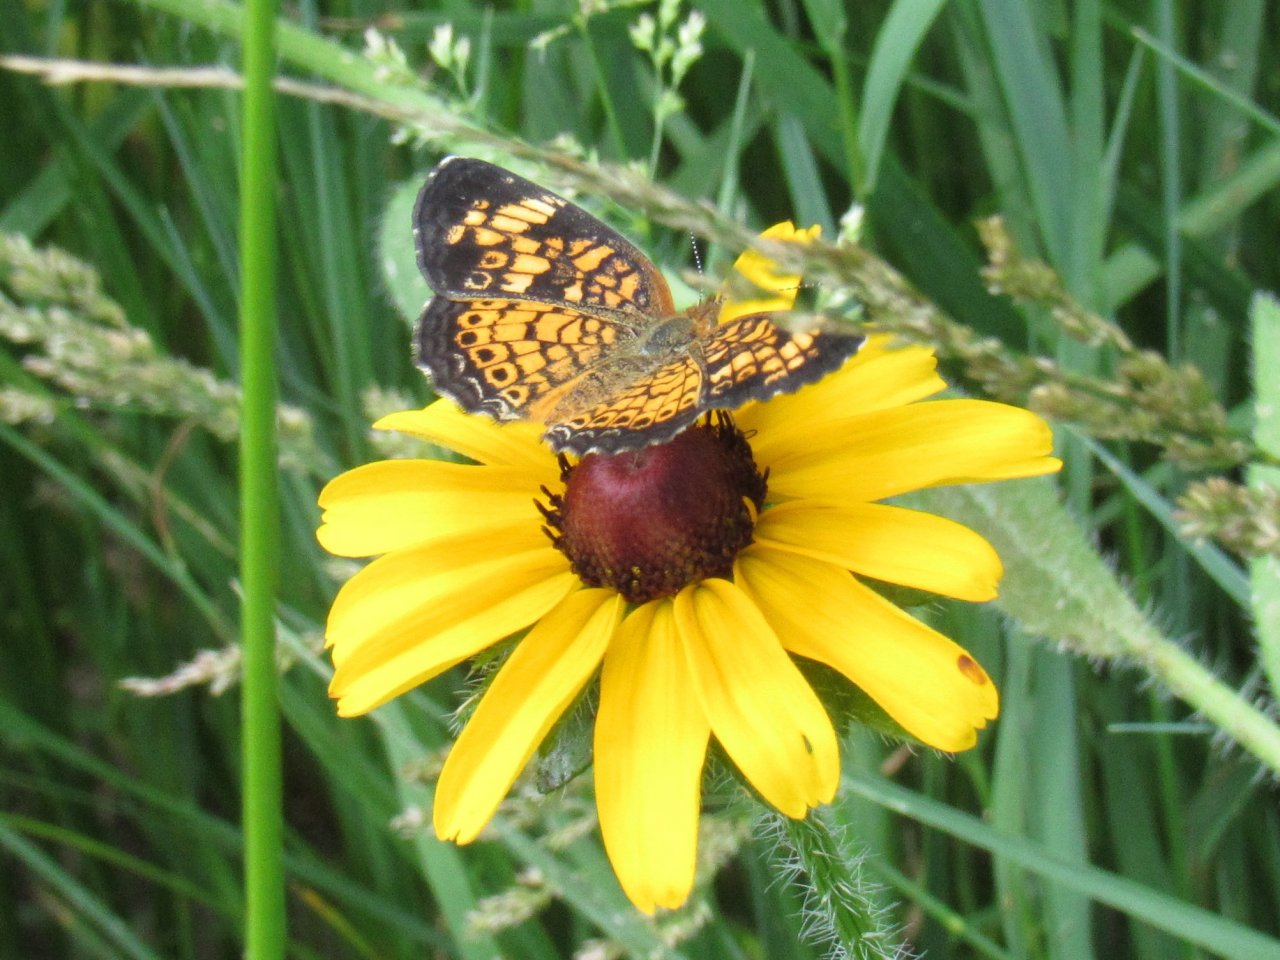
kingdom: Animalia
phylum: Arthropoda
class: Insecta
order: Lepidoptera
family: Nymphalidae
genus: Phyciodes
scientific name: Phyciodes tharos
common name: Pearl Crescent
